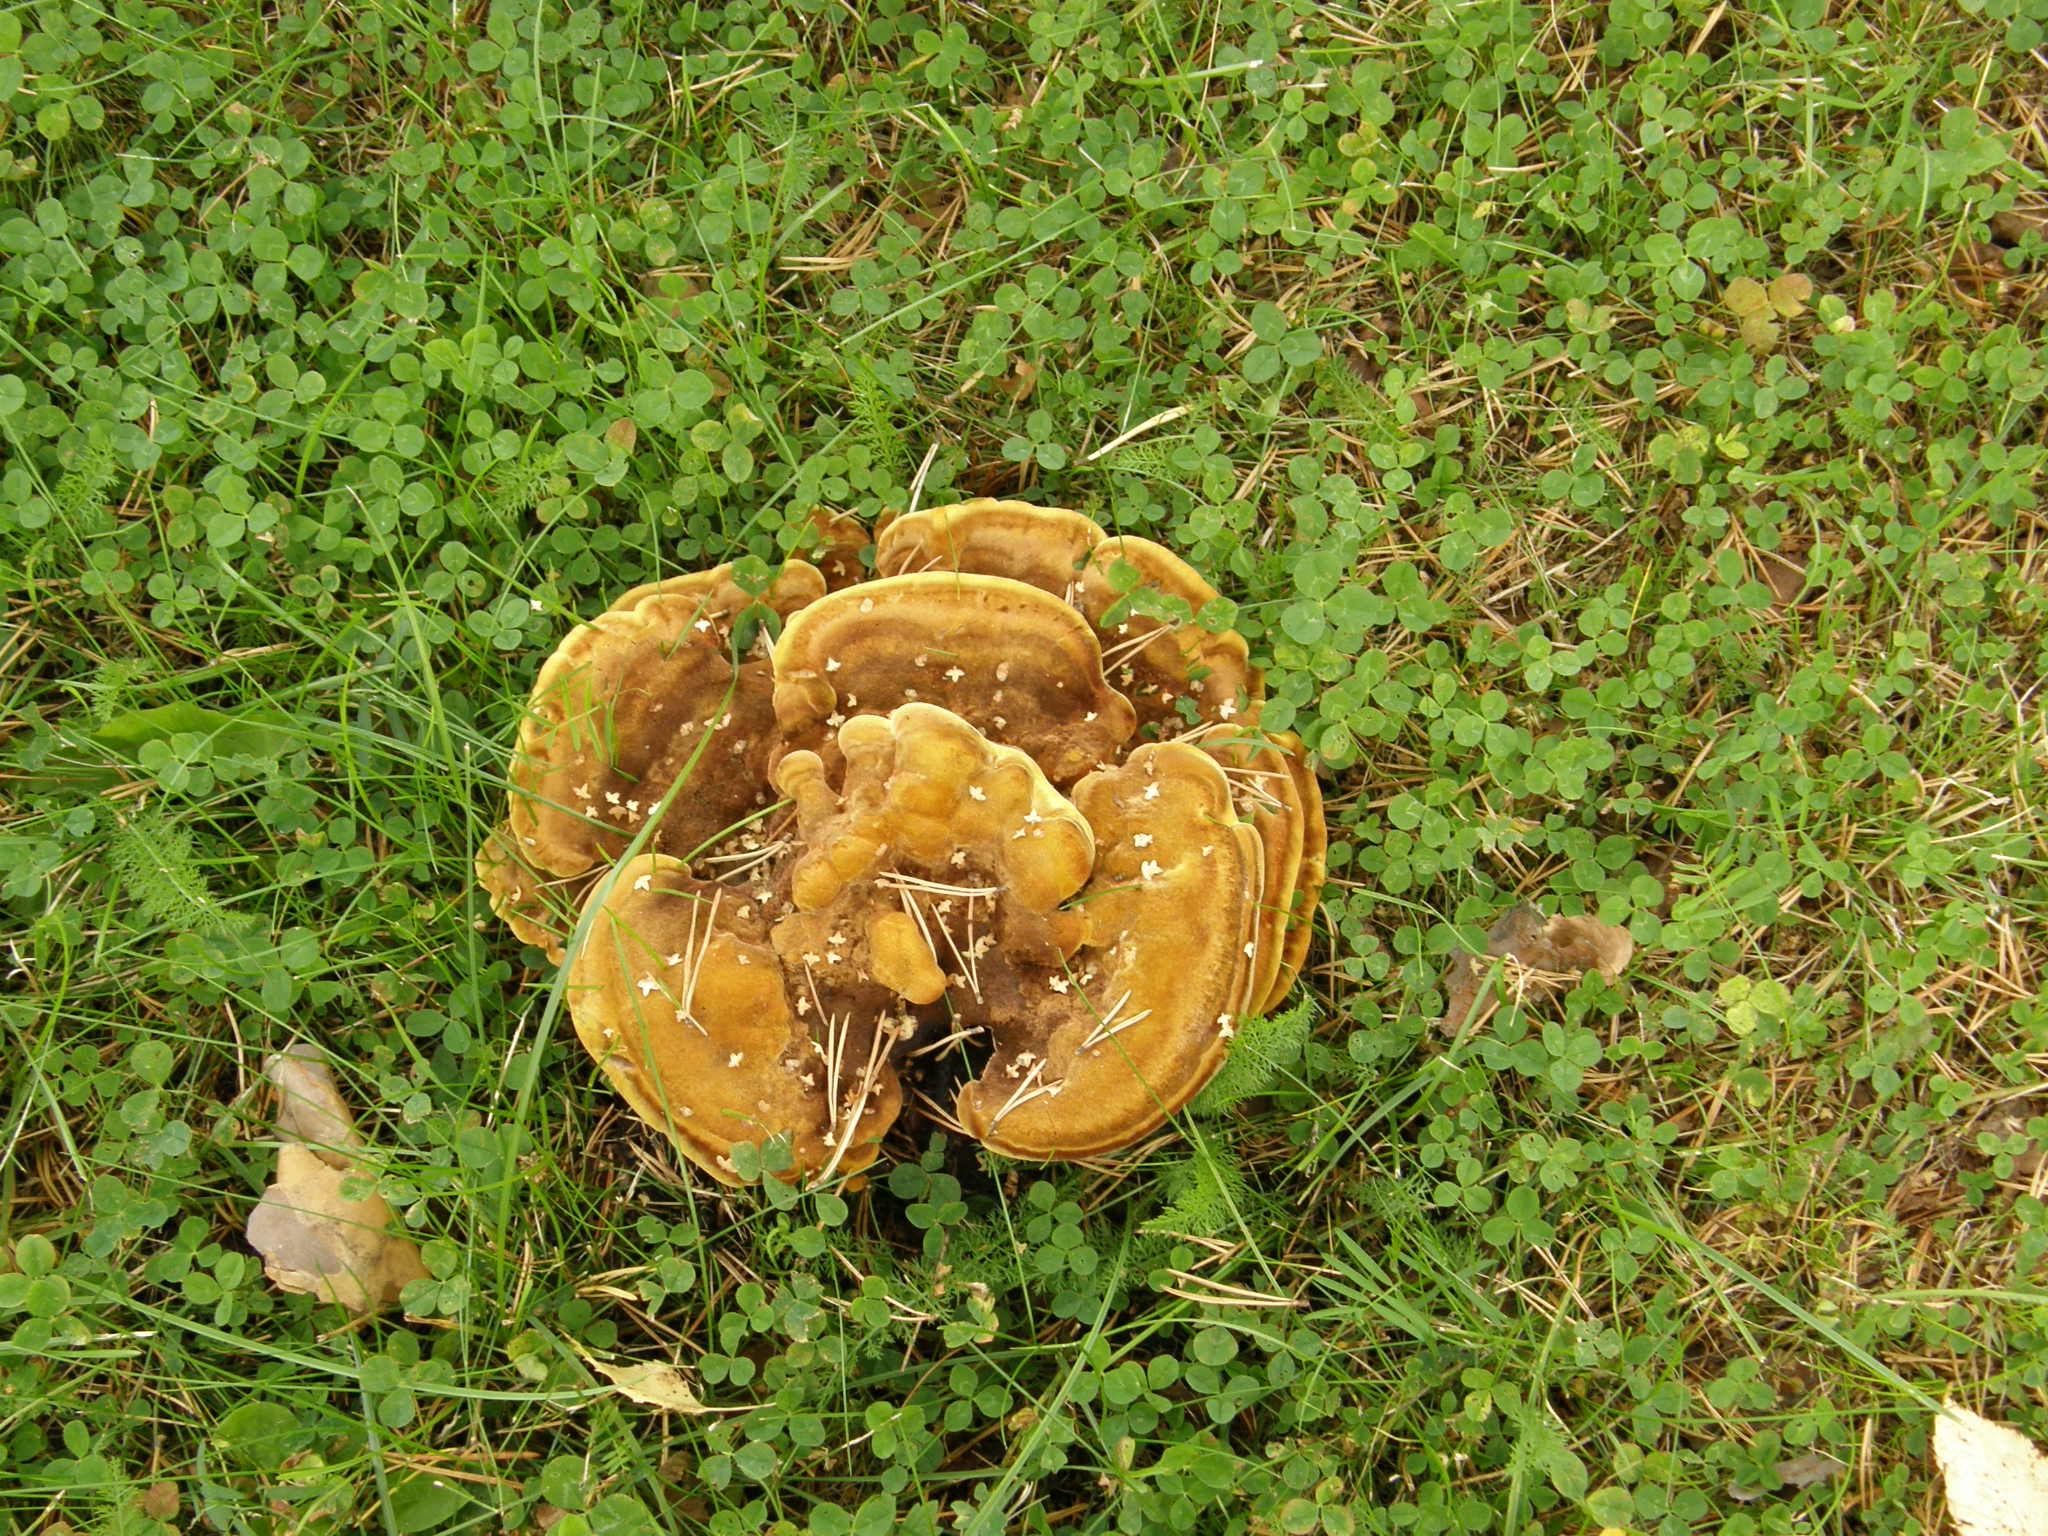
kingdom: Fungi
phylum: Basidiomycota
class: Agaricomycetes
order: Polyporales
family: Laetiporaceae
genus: Phaeolus
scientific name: Phaeolus schweinitzii
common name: Dyer's mazegill
